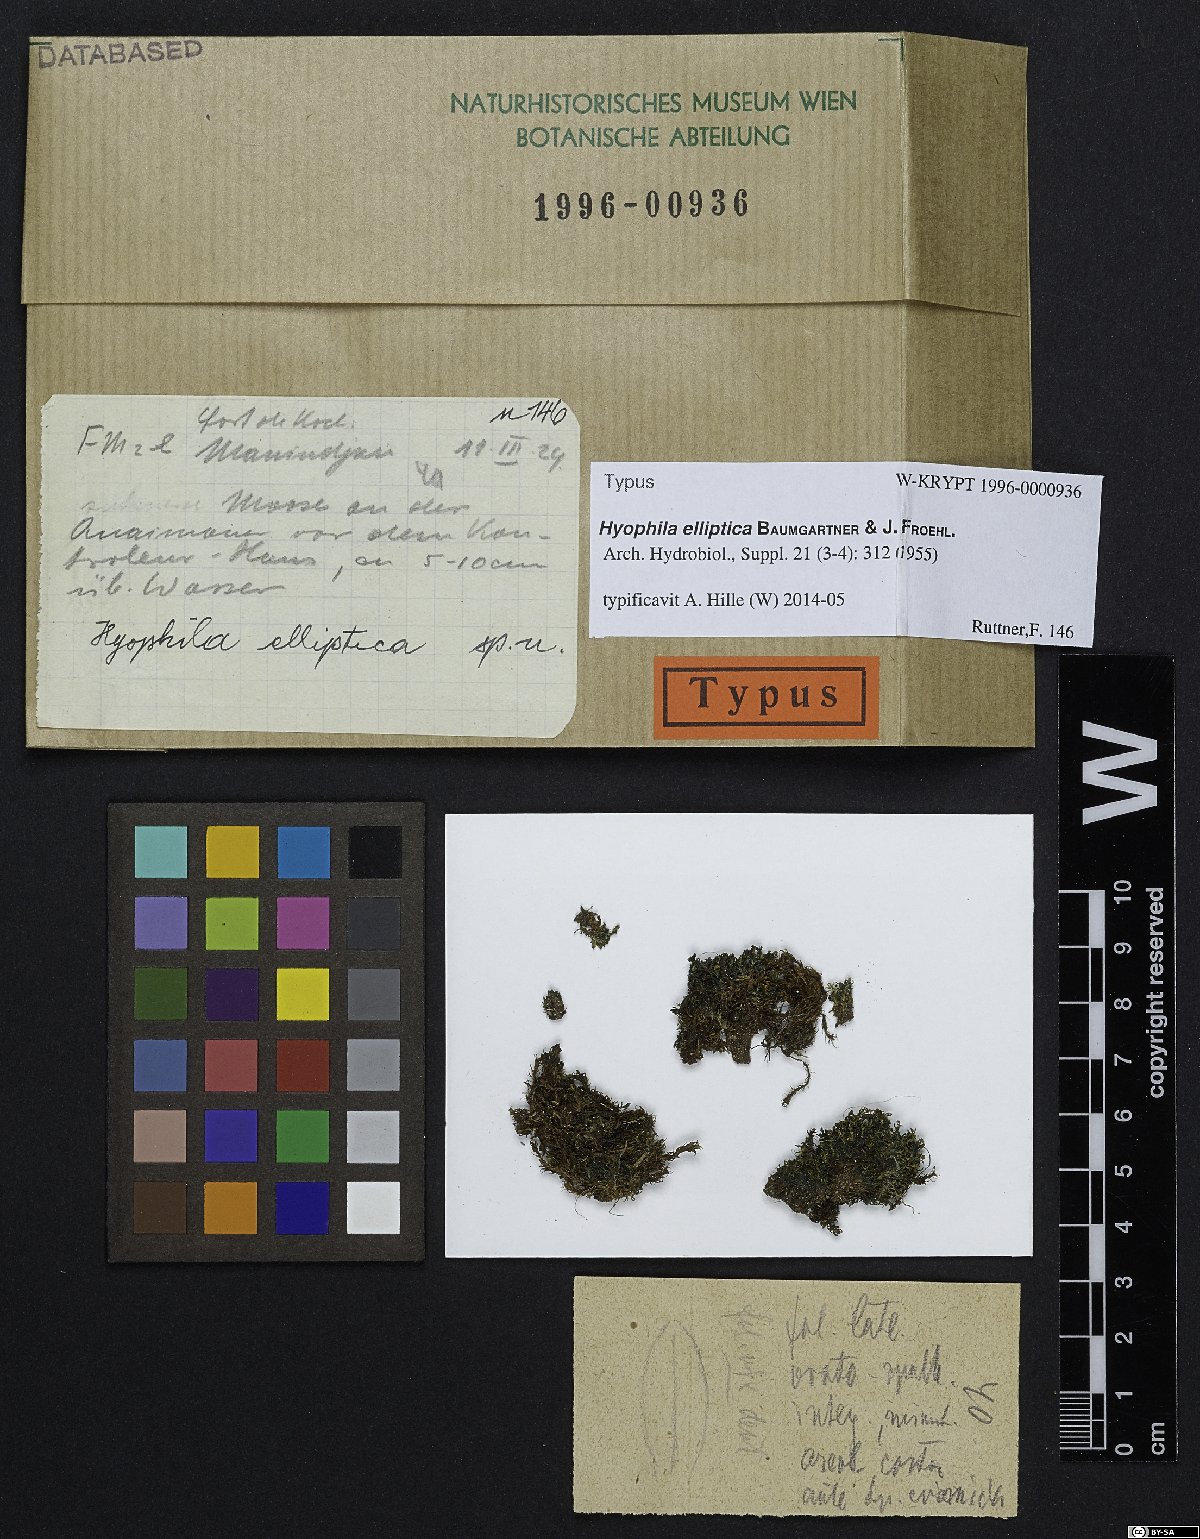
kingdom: Plantae
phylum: Bryophyta
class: Bryopsida
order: Pottiales
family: Pottiaceae
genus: Hyophila
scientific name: Hyophila elliptica
